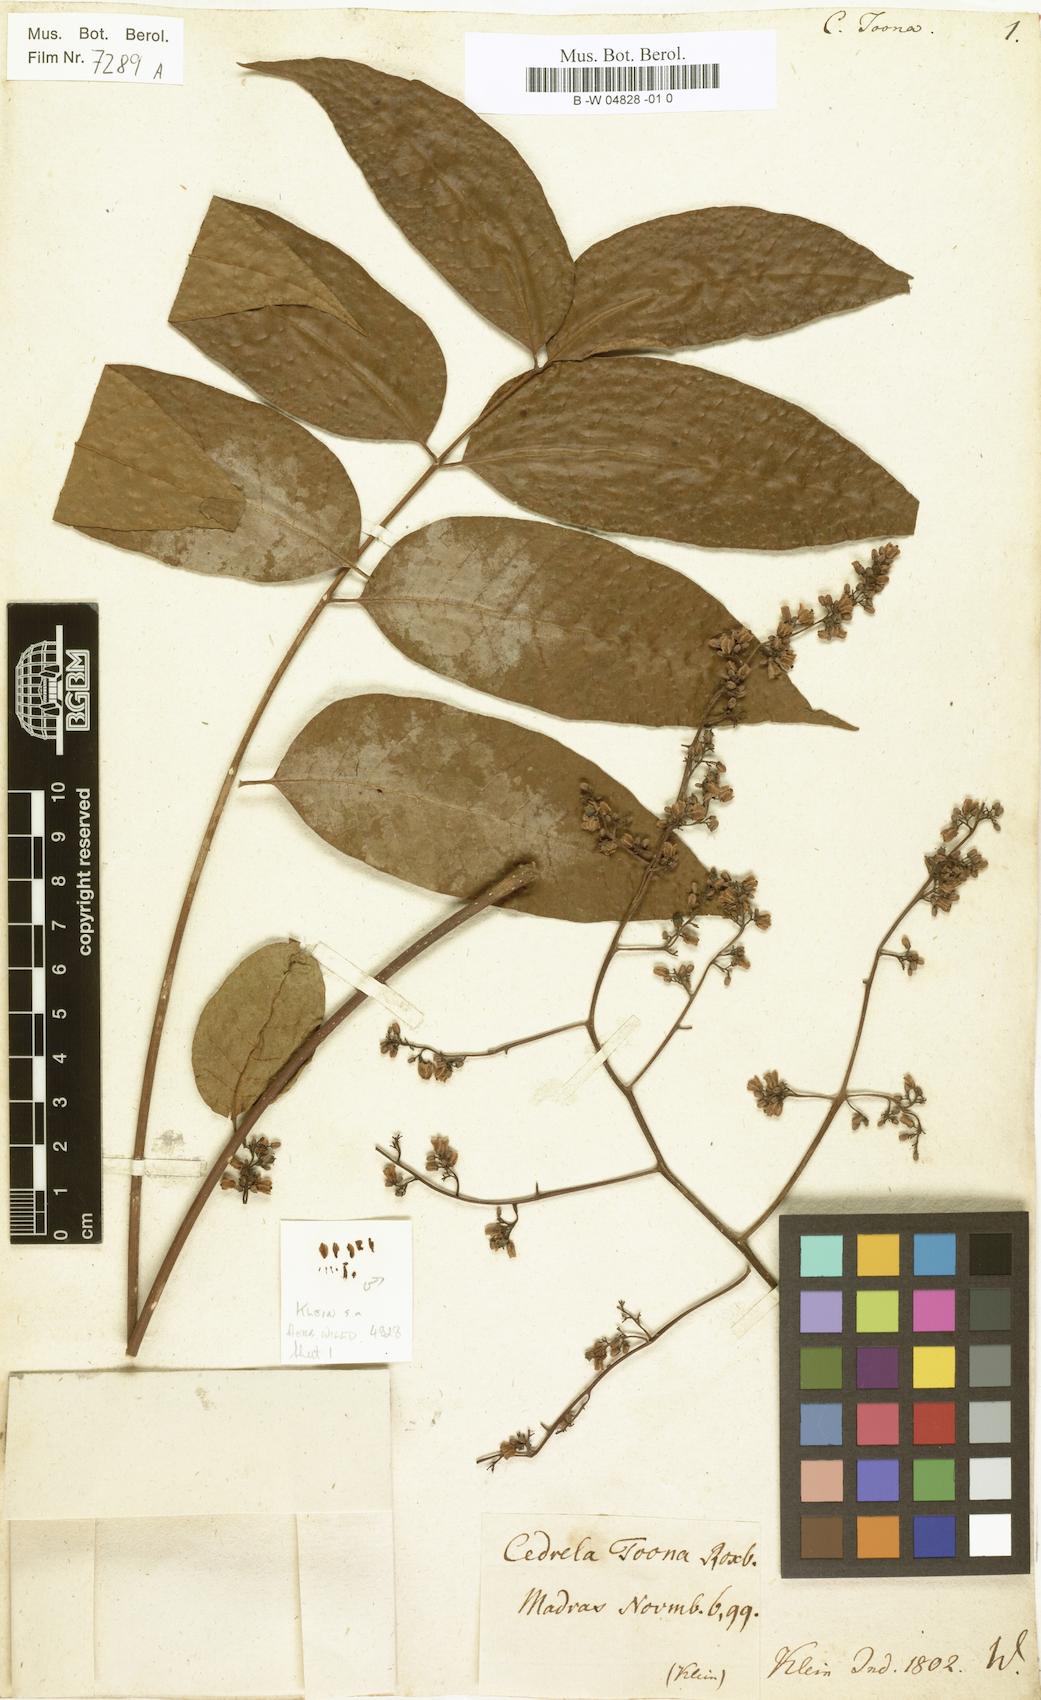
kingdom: Plantae
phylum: Tracheophyta
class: Magnoliopsida
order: Sapindales
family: Meliaceae
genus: Toona
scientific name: Toona ciliata
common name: Australian redcedar
